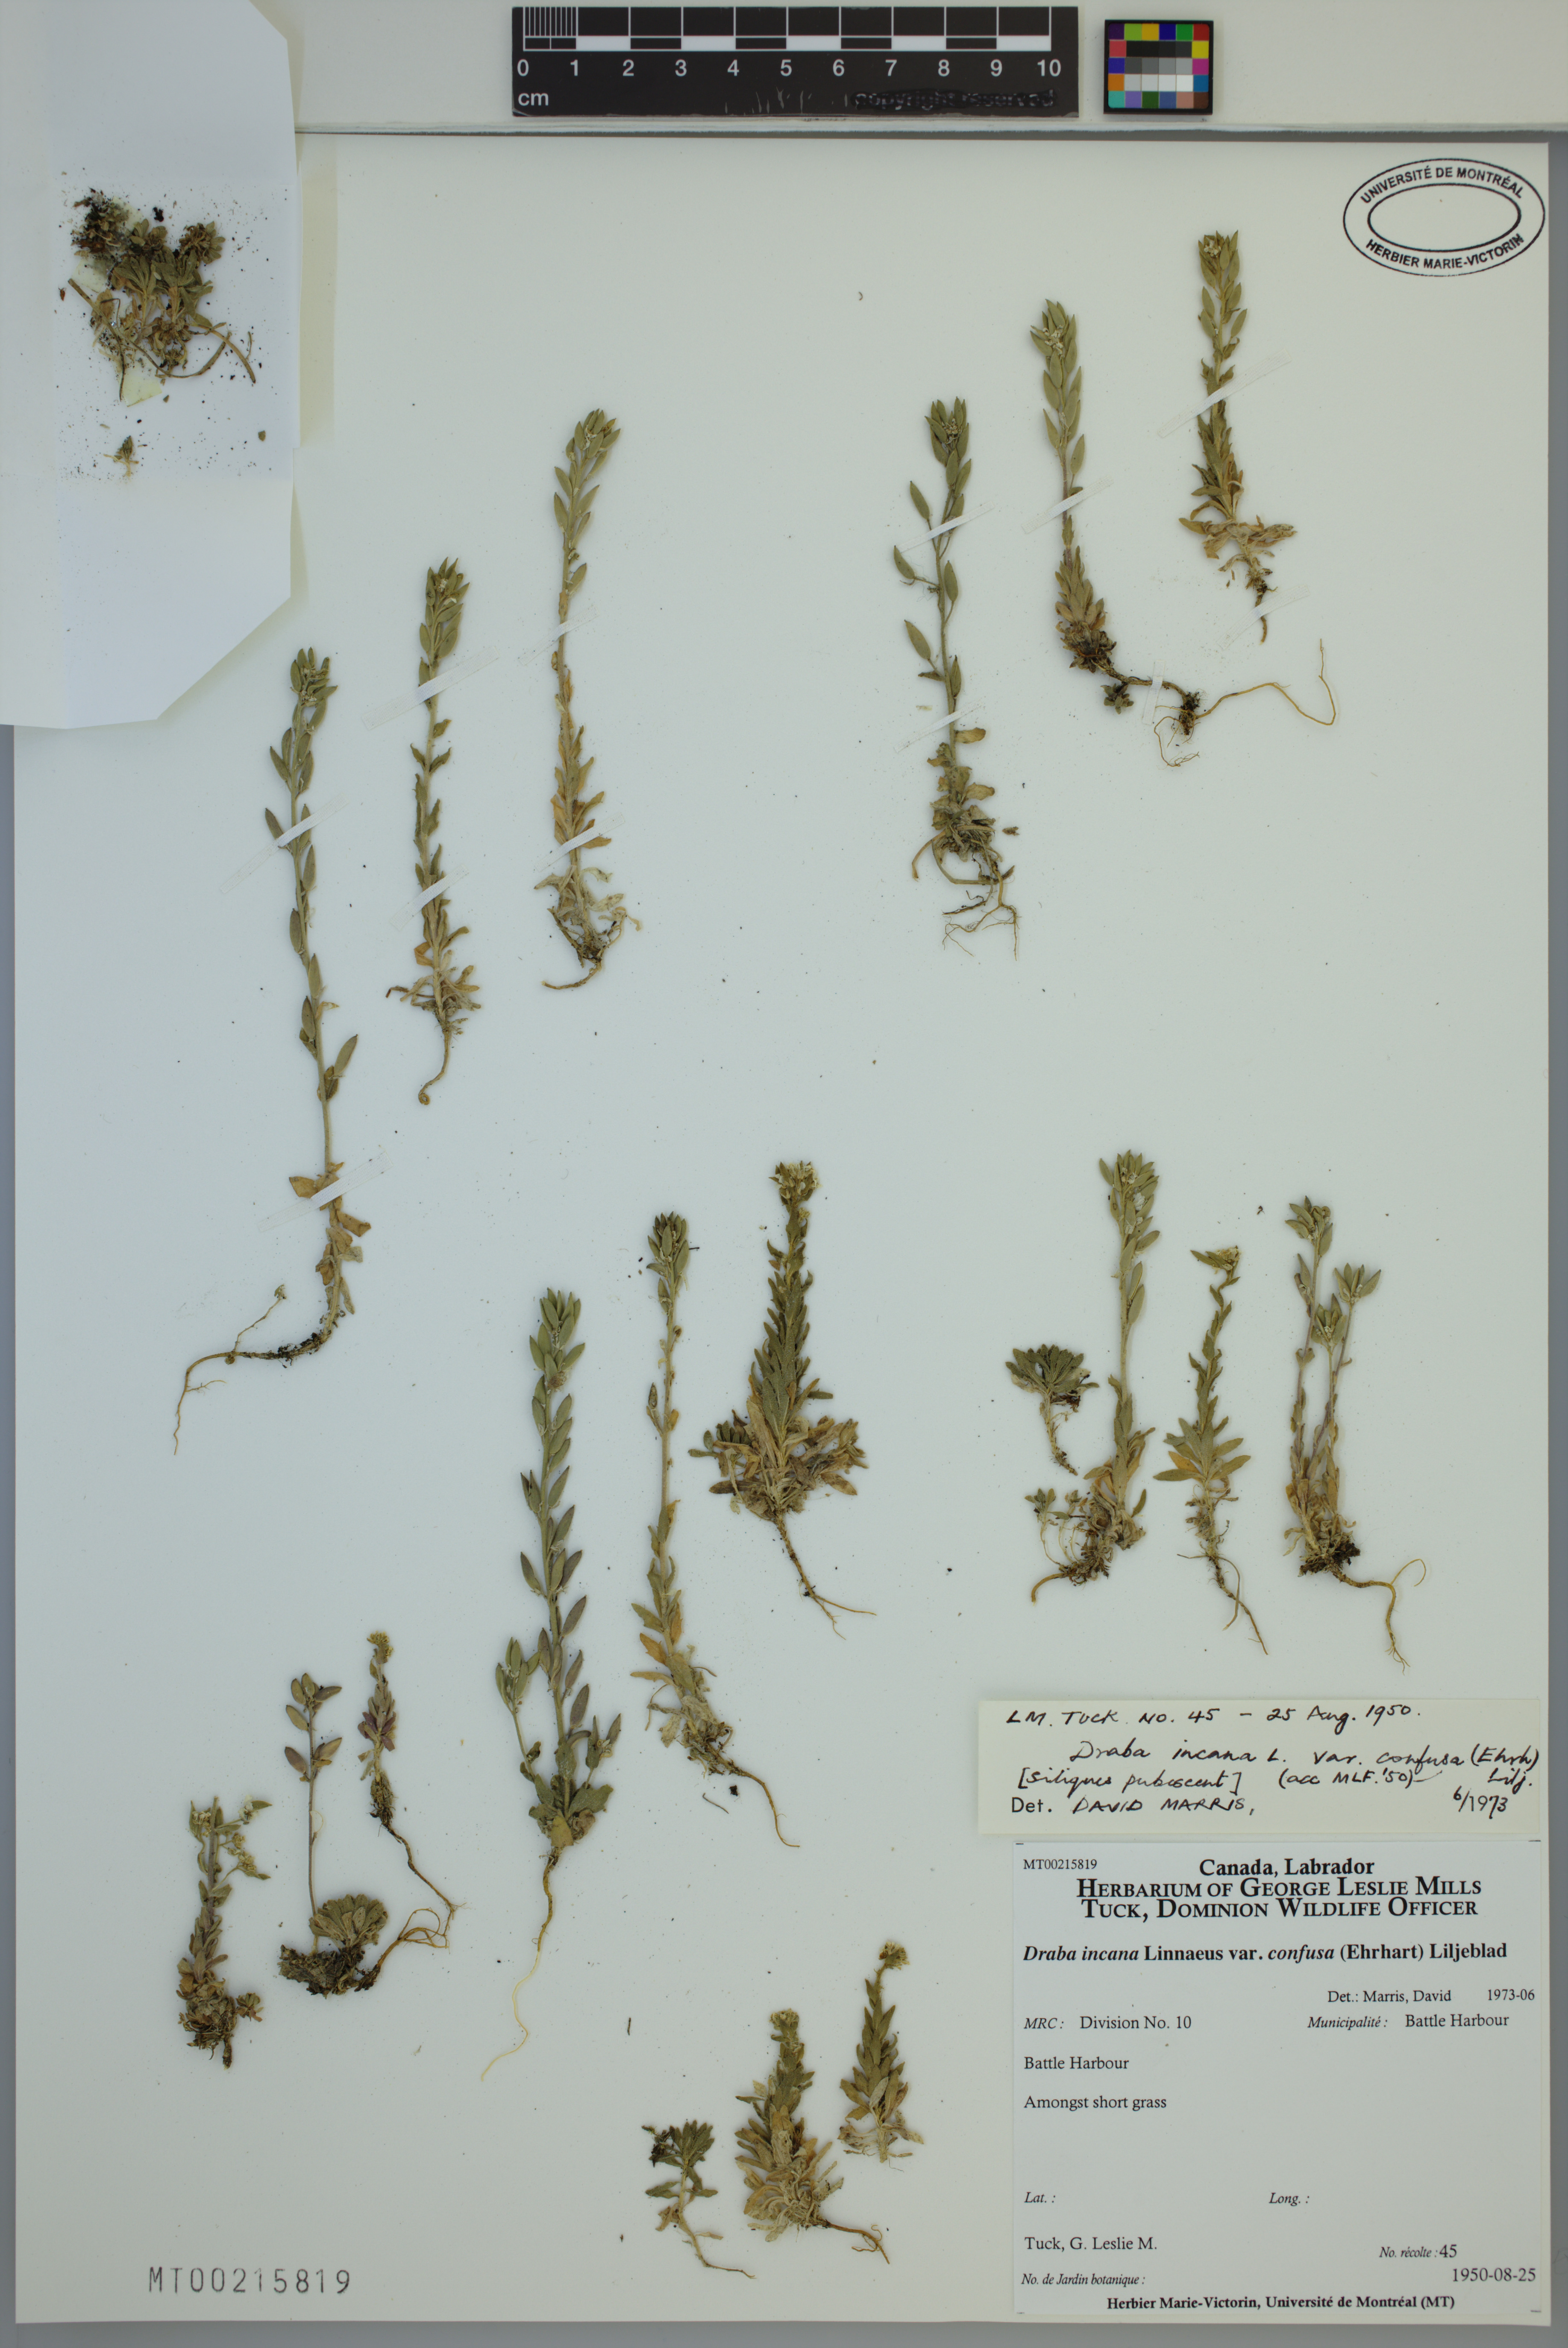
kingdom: Plantae
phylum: Tracheophyta
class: Magnoliopsida
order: Brassicales
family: Brassicaceae
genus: Draba
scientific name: Draba incana
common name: Hoary whitlow-grass
